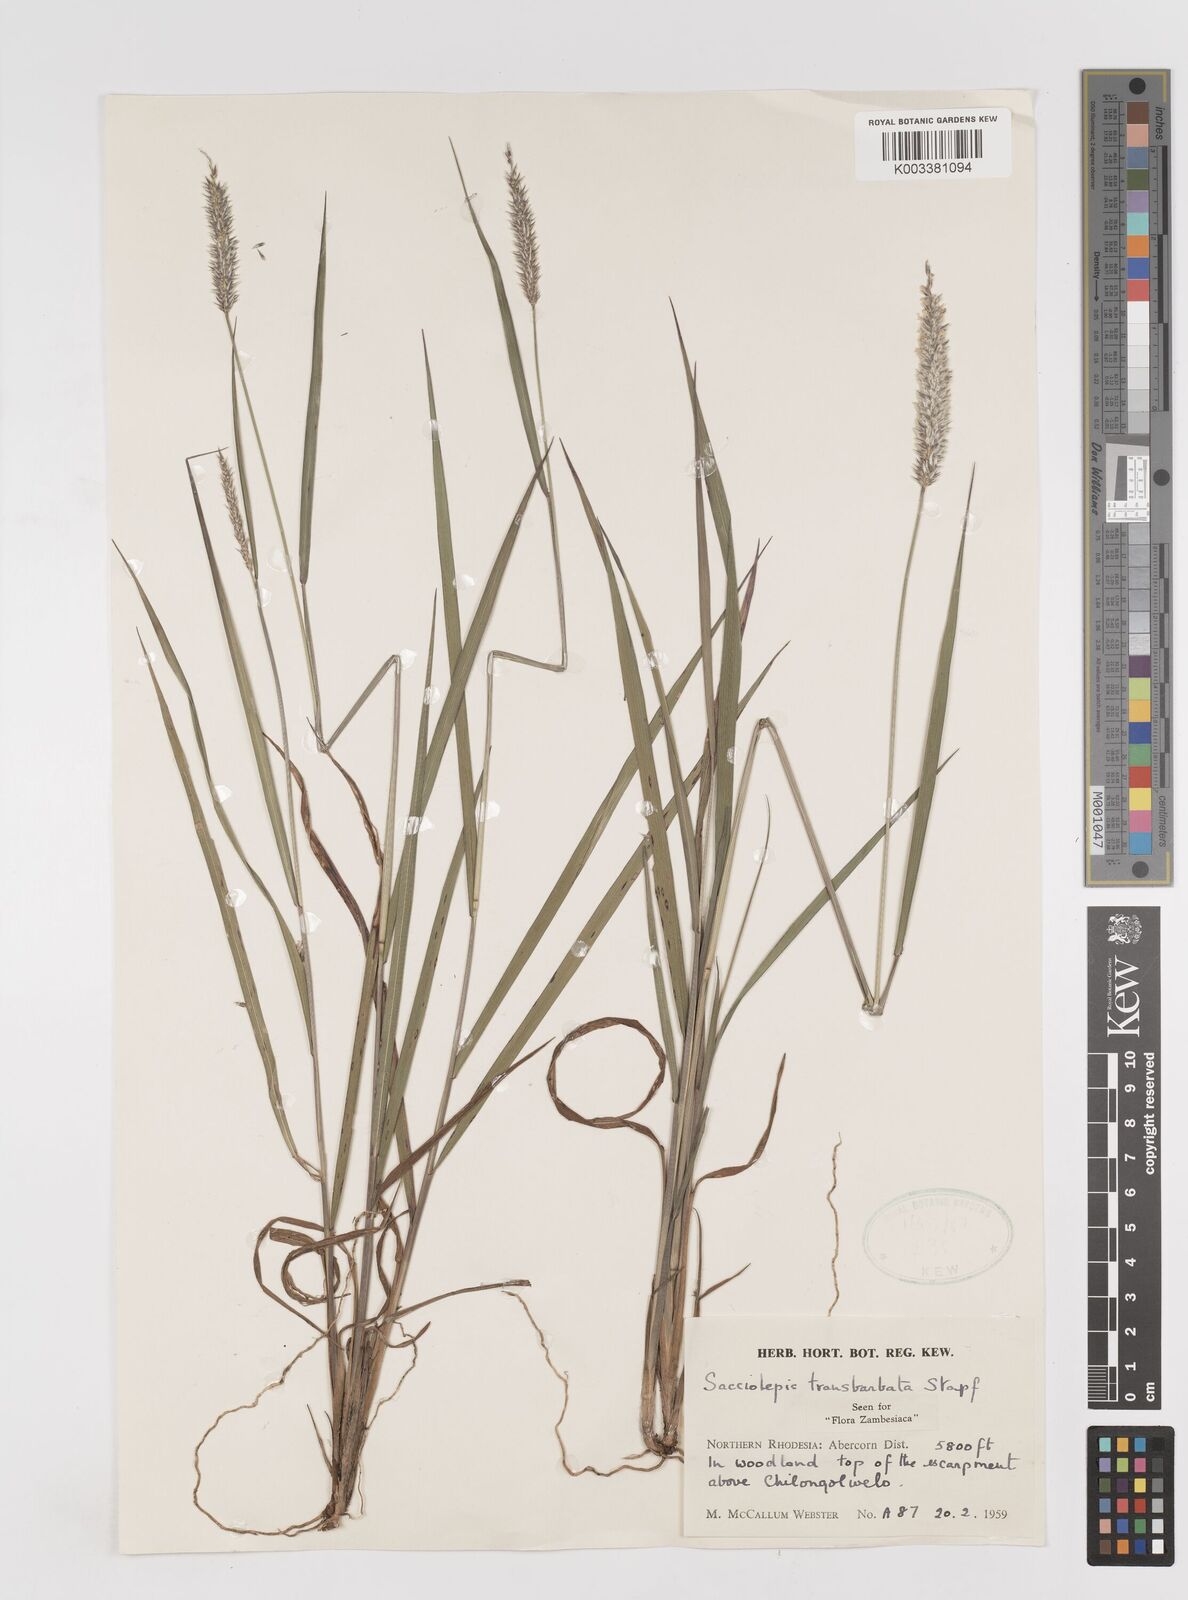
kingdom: Plantae
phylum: Tracheophyta
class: Liliopsida
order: Poales
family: Poaceae
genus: Sacciolepis
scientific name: Sacciolepis transbarbata
